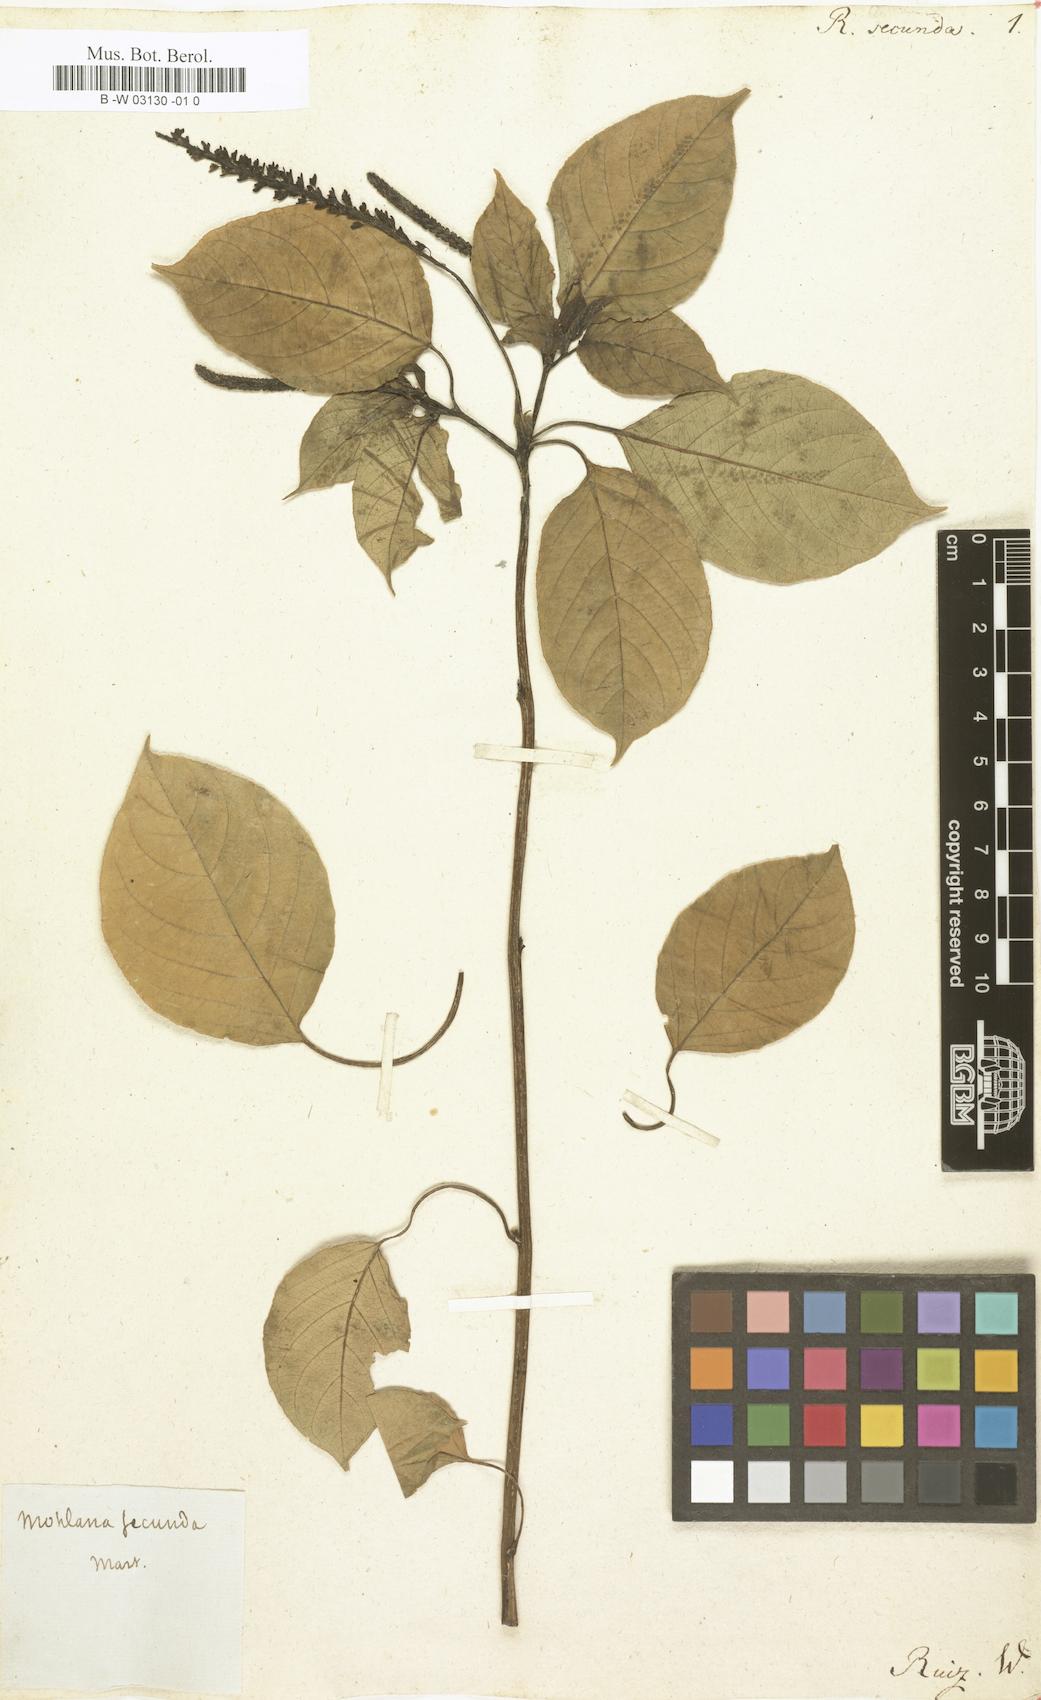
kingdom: Plantae
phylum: Tracheophyta
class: Magnoliopsida
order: Caryophyllales
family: Phytolaccaceae
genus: Hilleria
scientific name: Hilleria secunda
